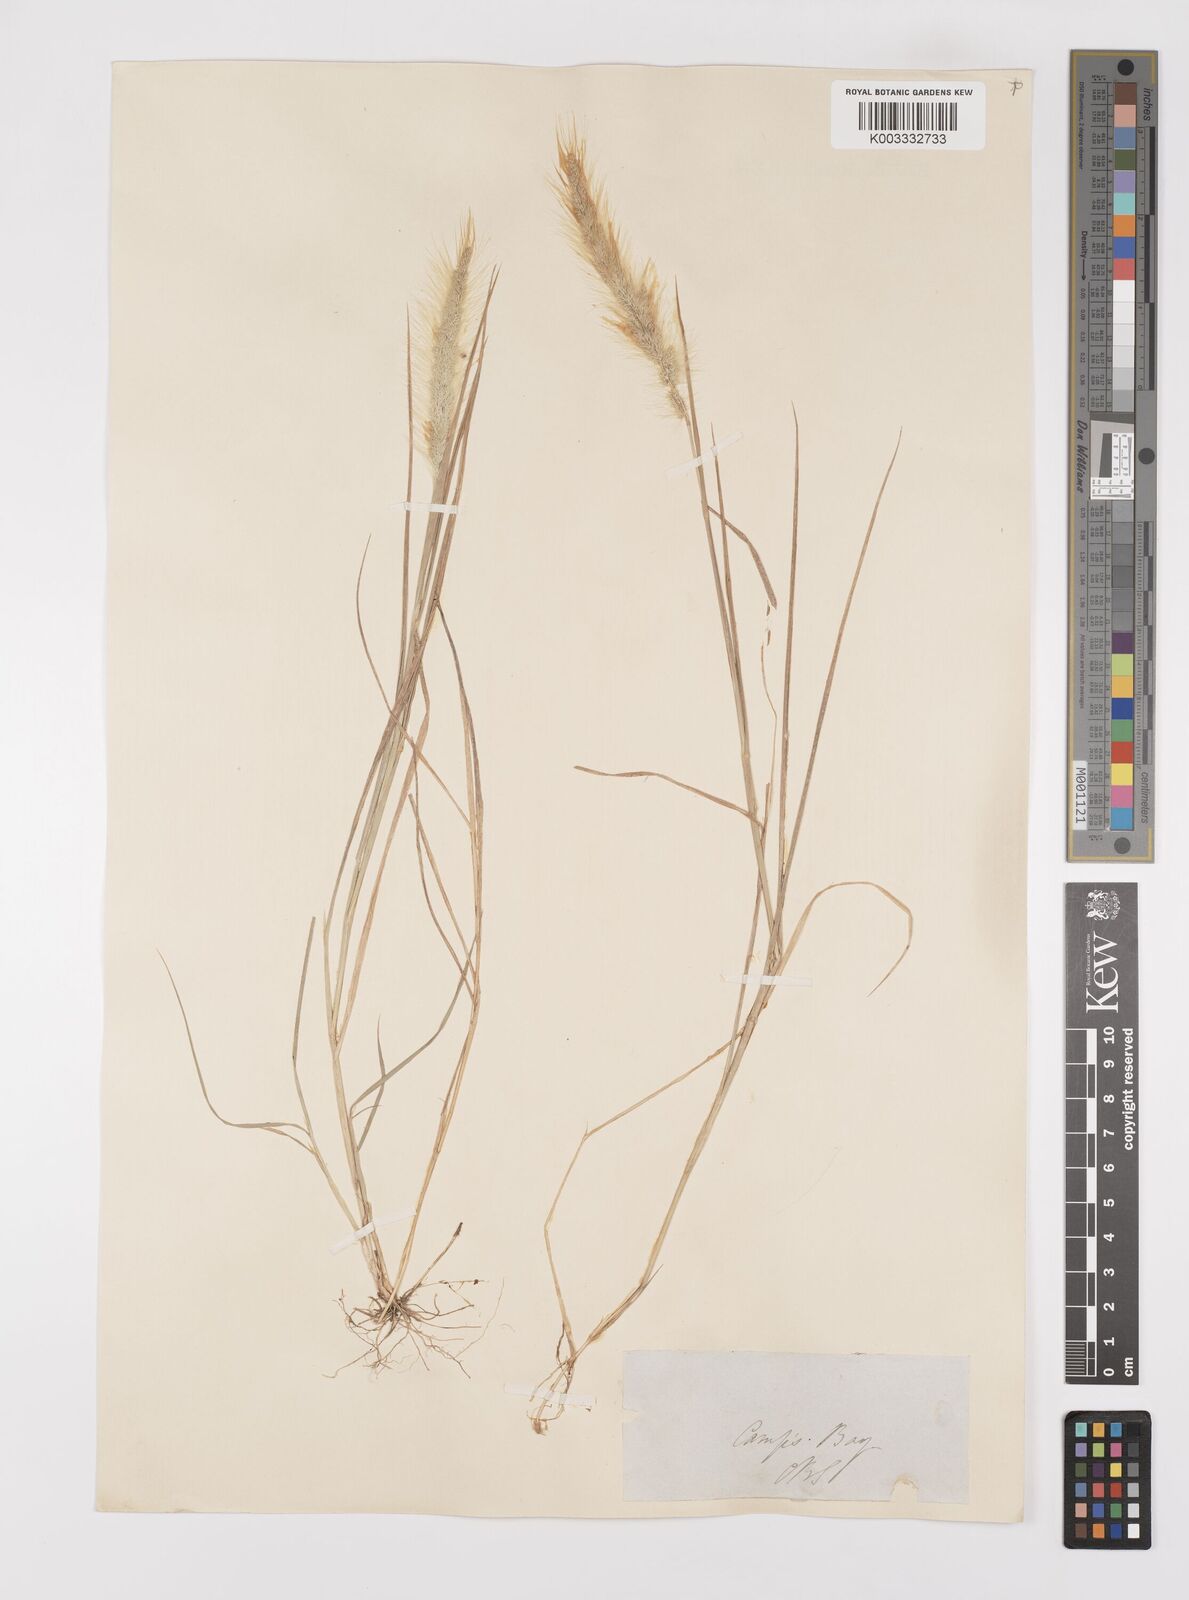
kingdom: Plantae
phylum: Tracheophyta
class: Liliopsida
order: Poales
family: Poaceae
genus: Polypogon
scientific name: Polypogon tenuis
